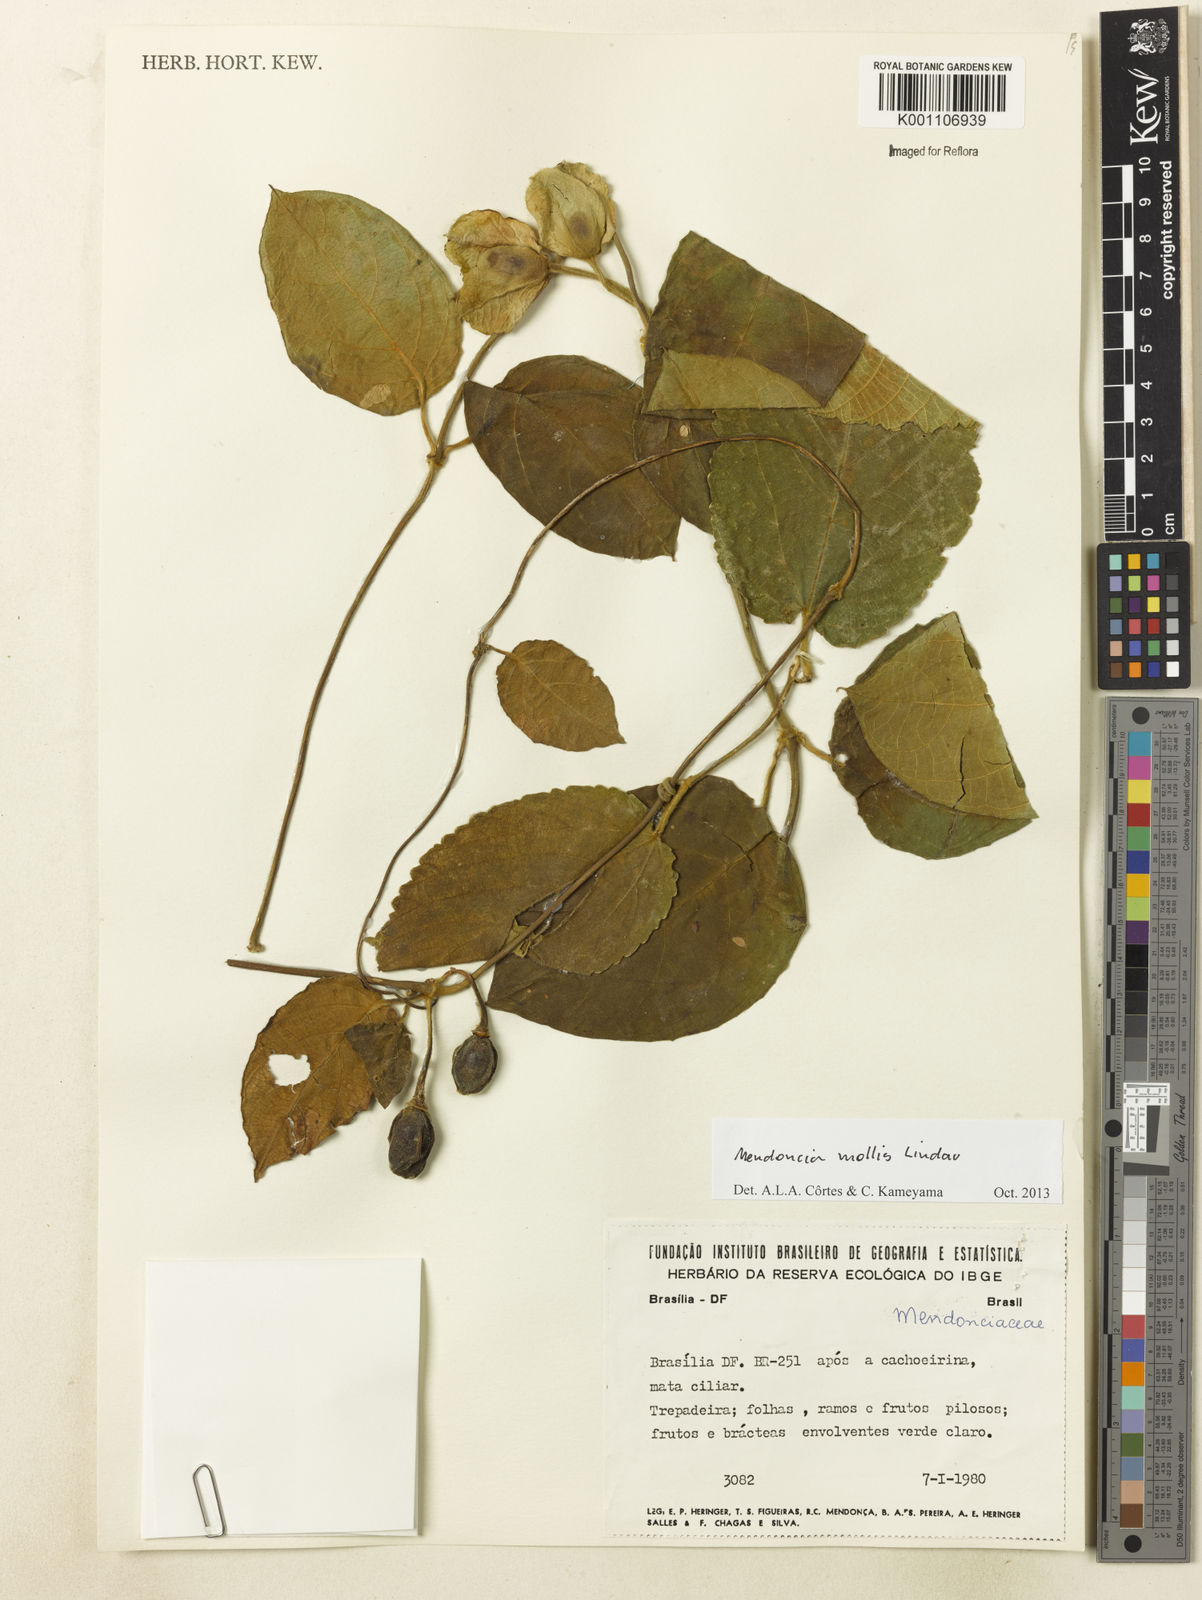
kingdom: Plantae
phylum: Tracheophyta
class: Magnoliopsida
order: Lamiales
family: Acanthaceae
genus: Mendoncia
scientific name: Mendoncia mollis
